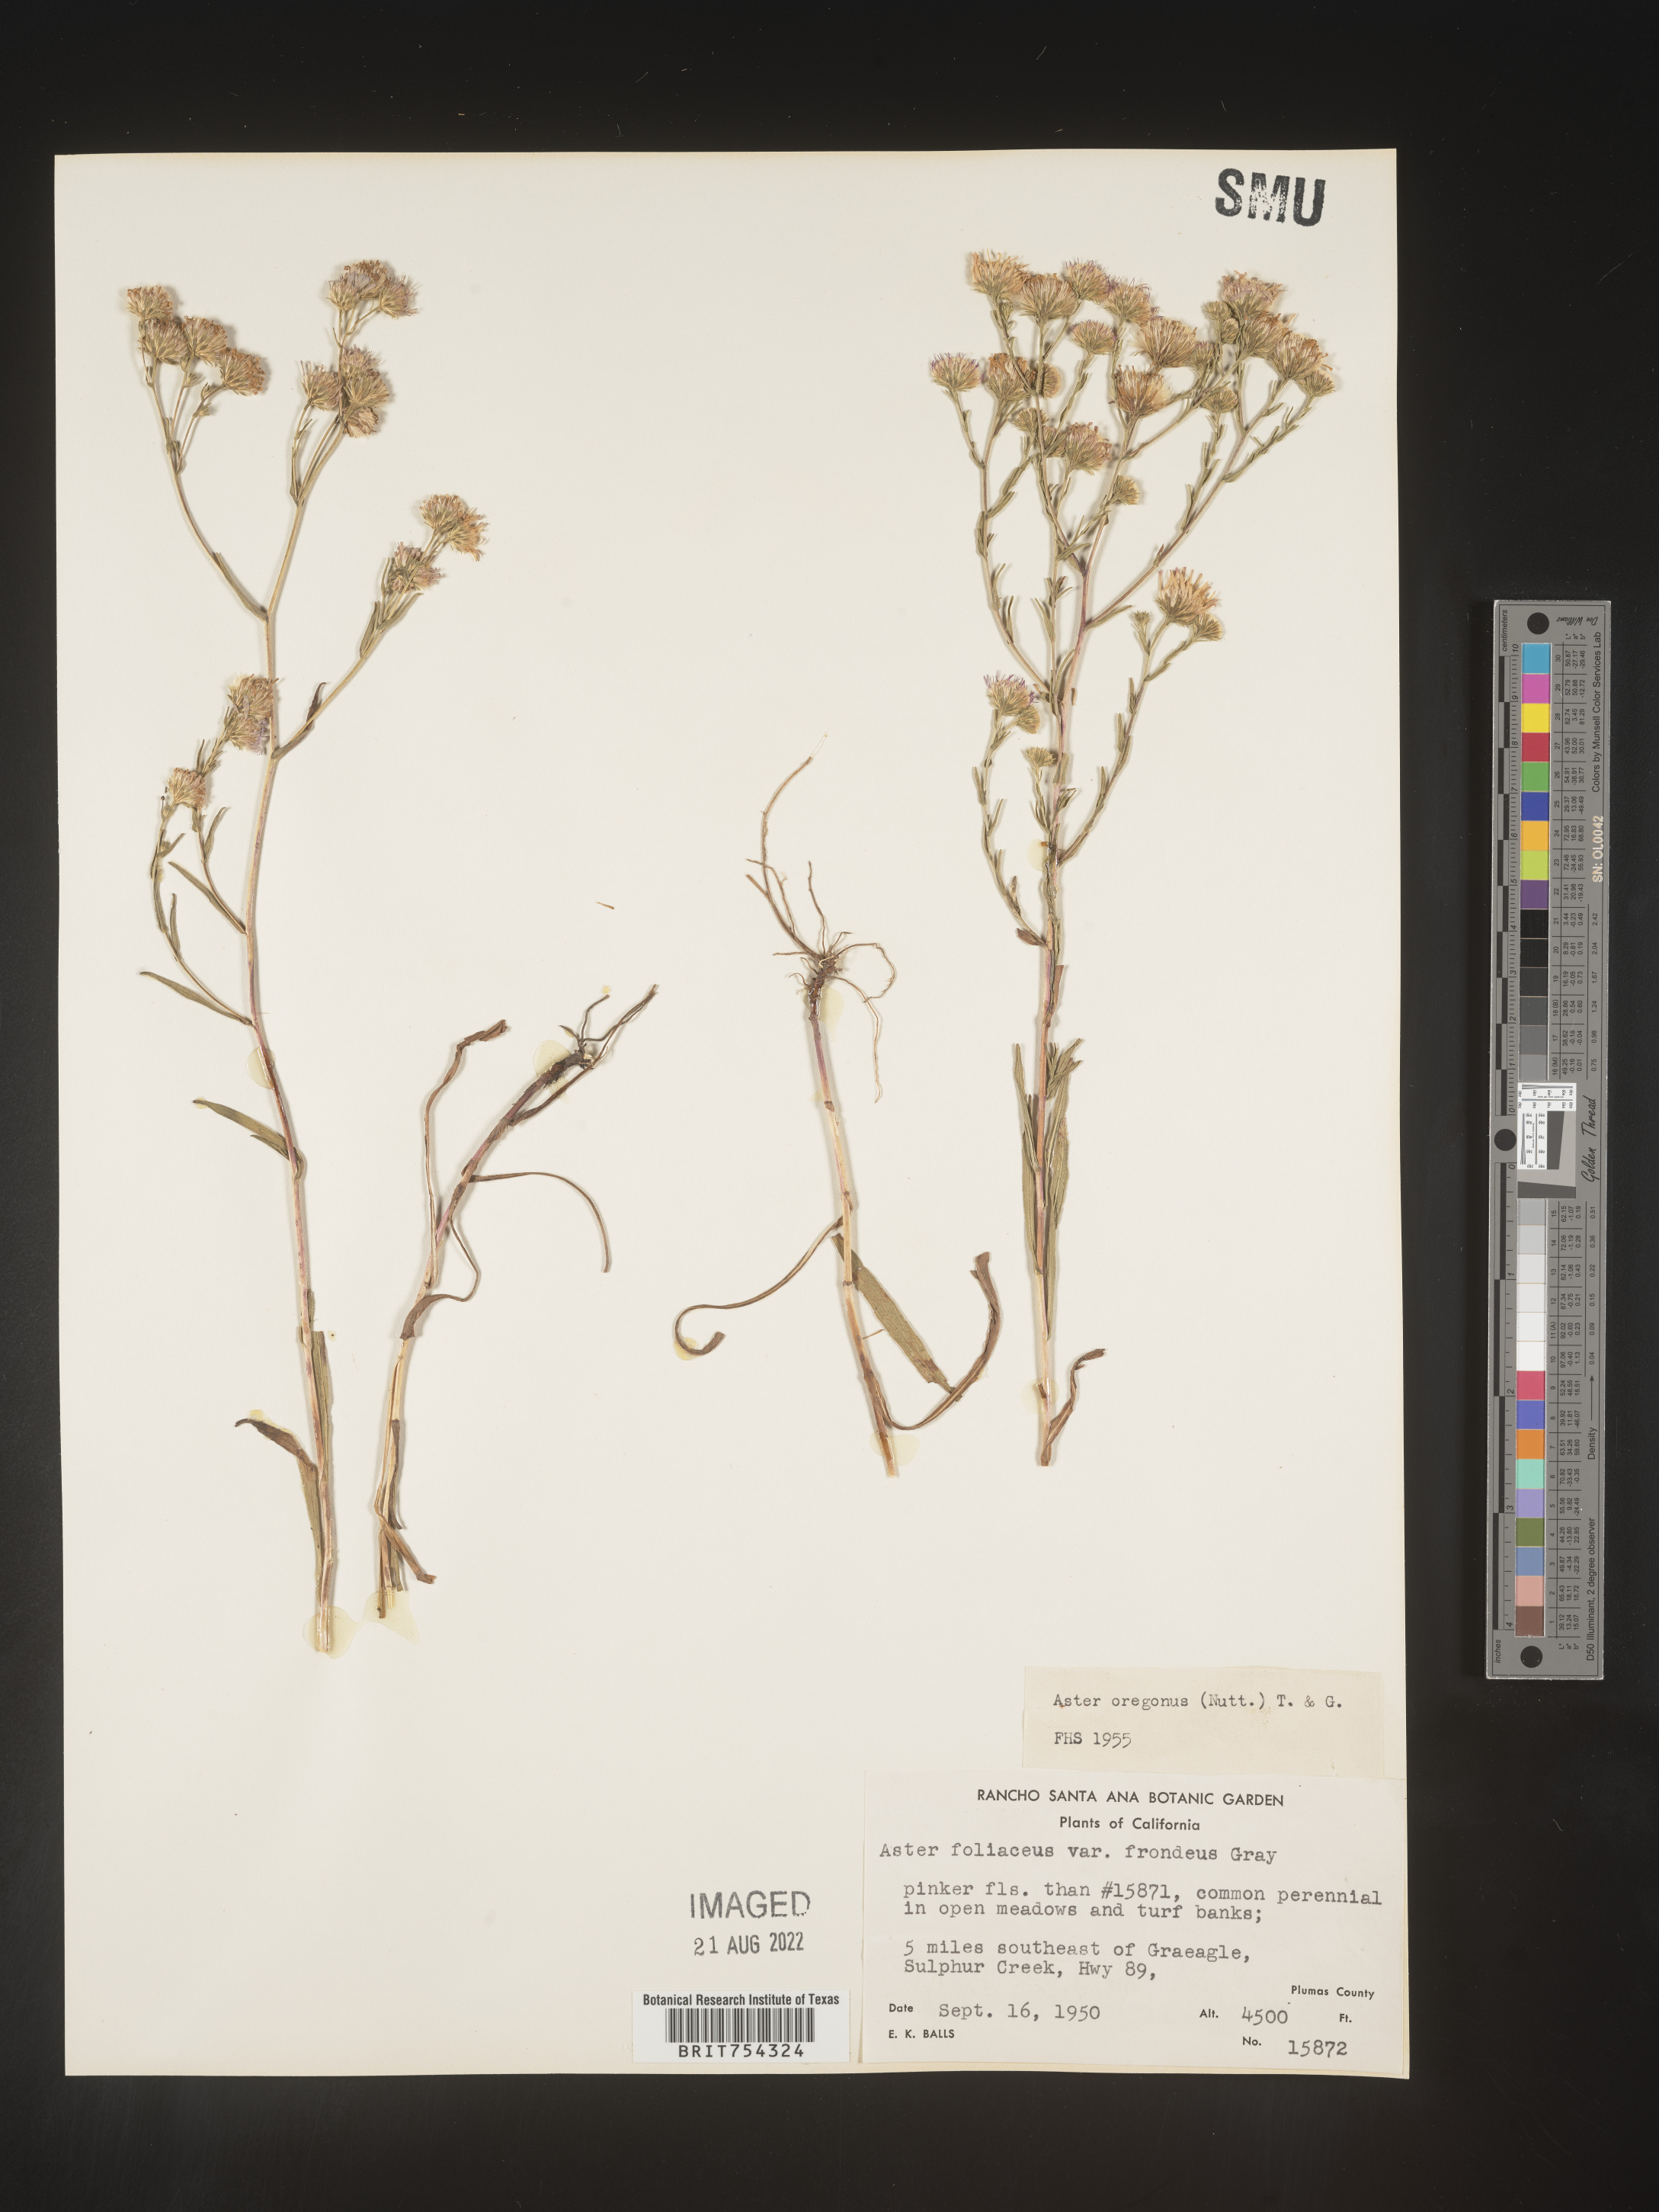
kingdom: Plantae
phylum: Tracheophyta
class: Magnoliopsida
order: Asterales
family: Asteraceae
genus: Symphyotrichum
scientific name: Symphyotrichum subspicatum
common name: Douglas' aster
